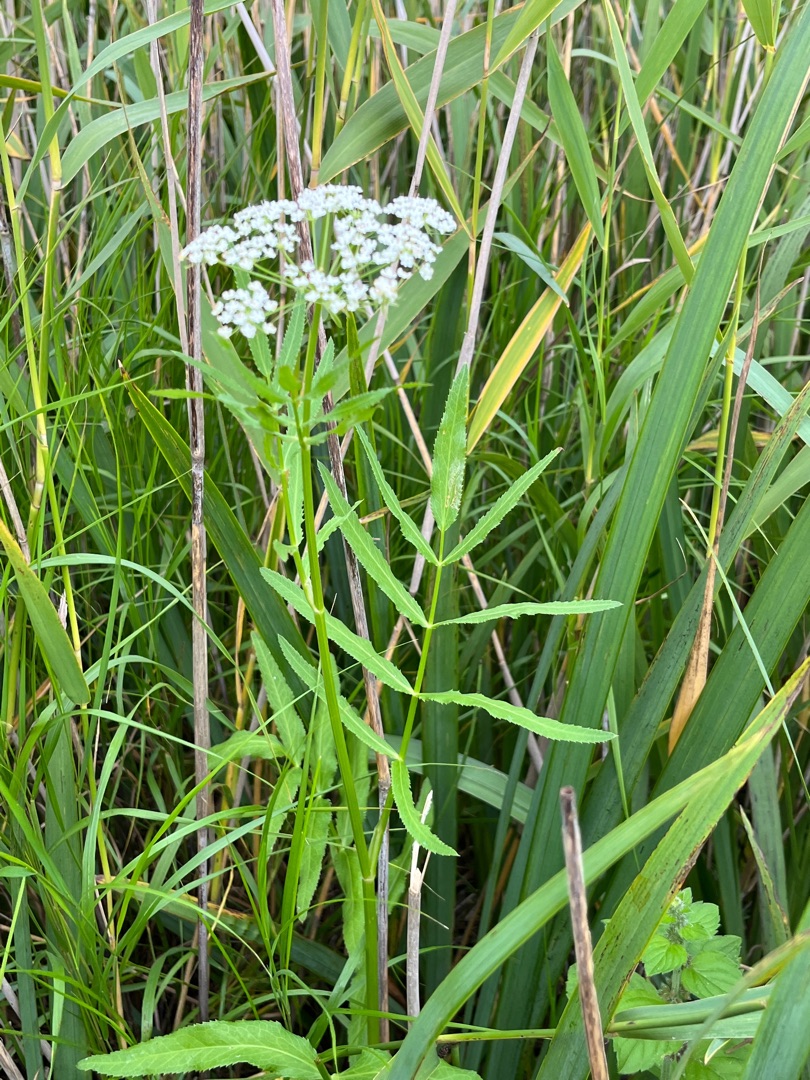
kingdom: Plantae
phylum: Tracheophyta
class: Magnoliopsida
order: Apiales
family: Apiaceae
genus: Sium
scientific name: Sium latifolium
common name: Bredbladet mærke
